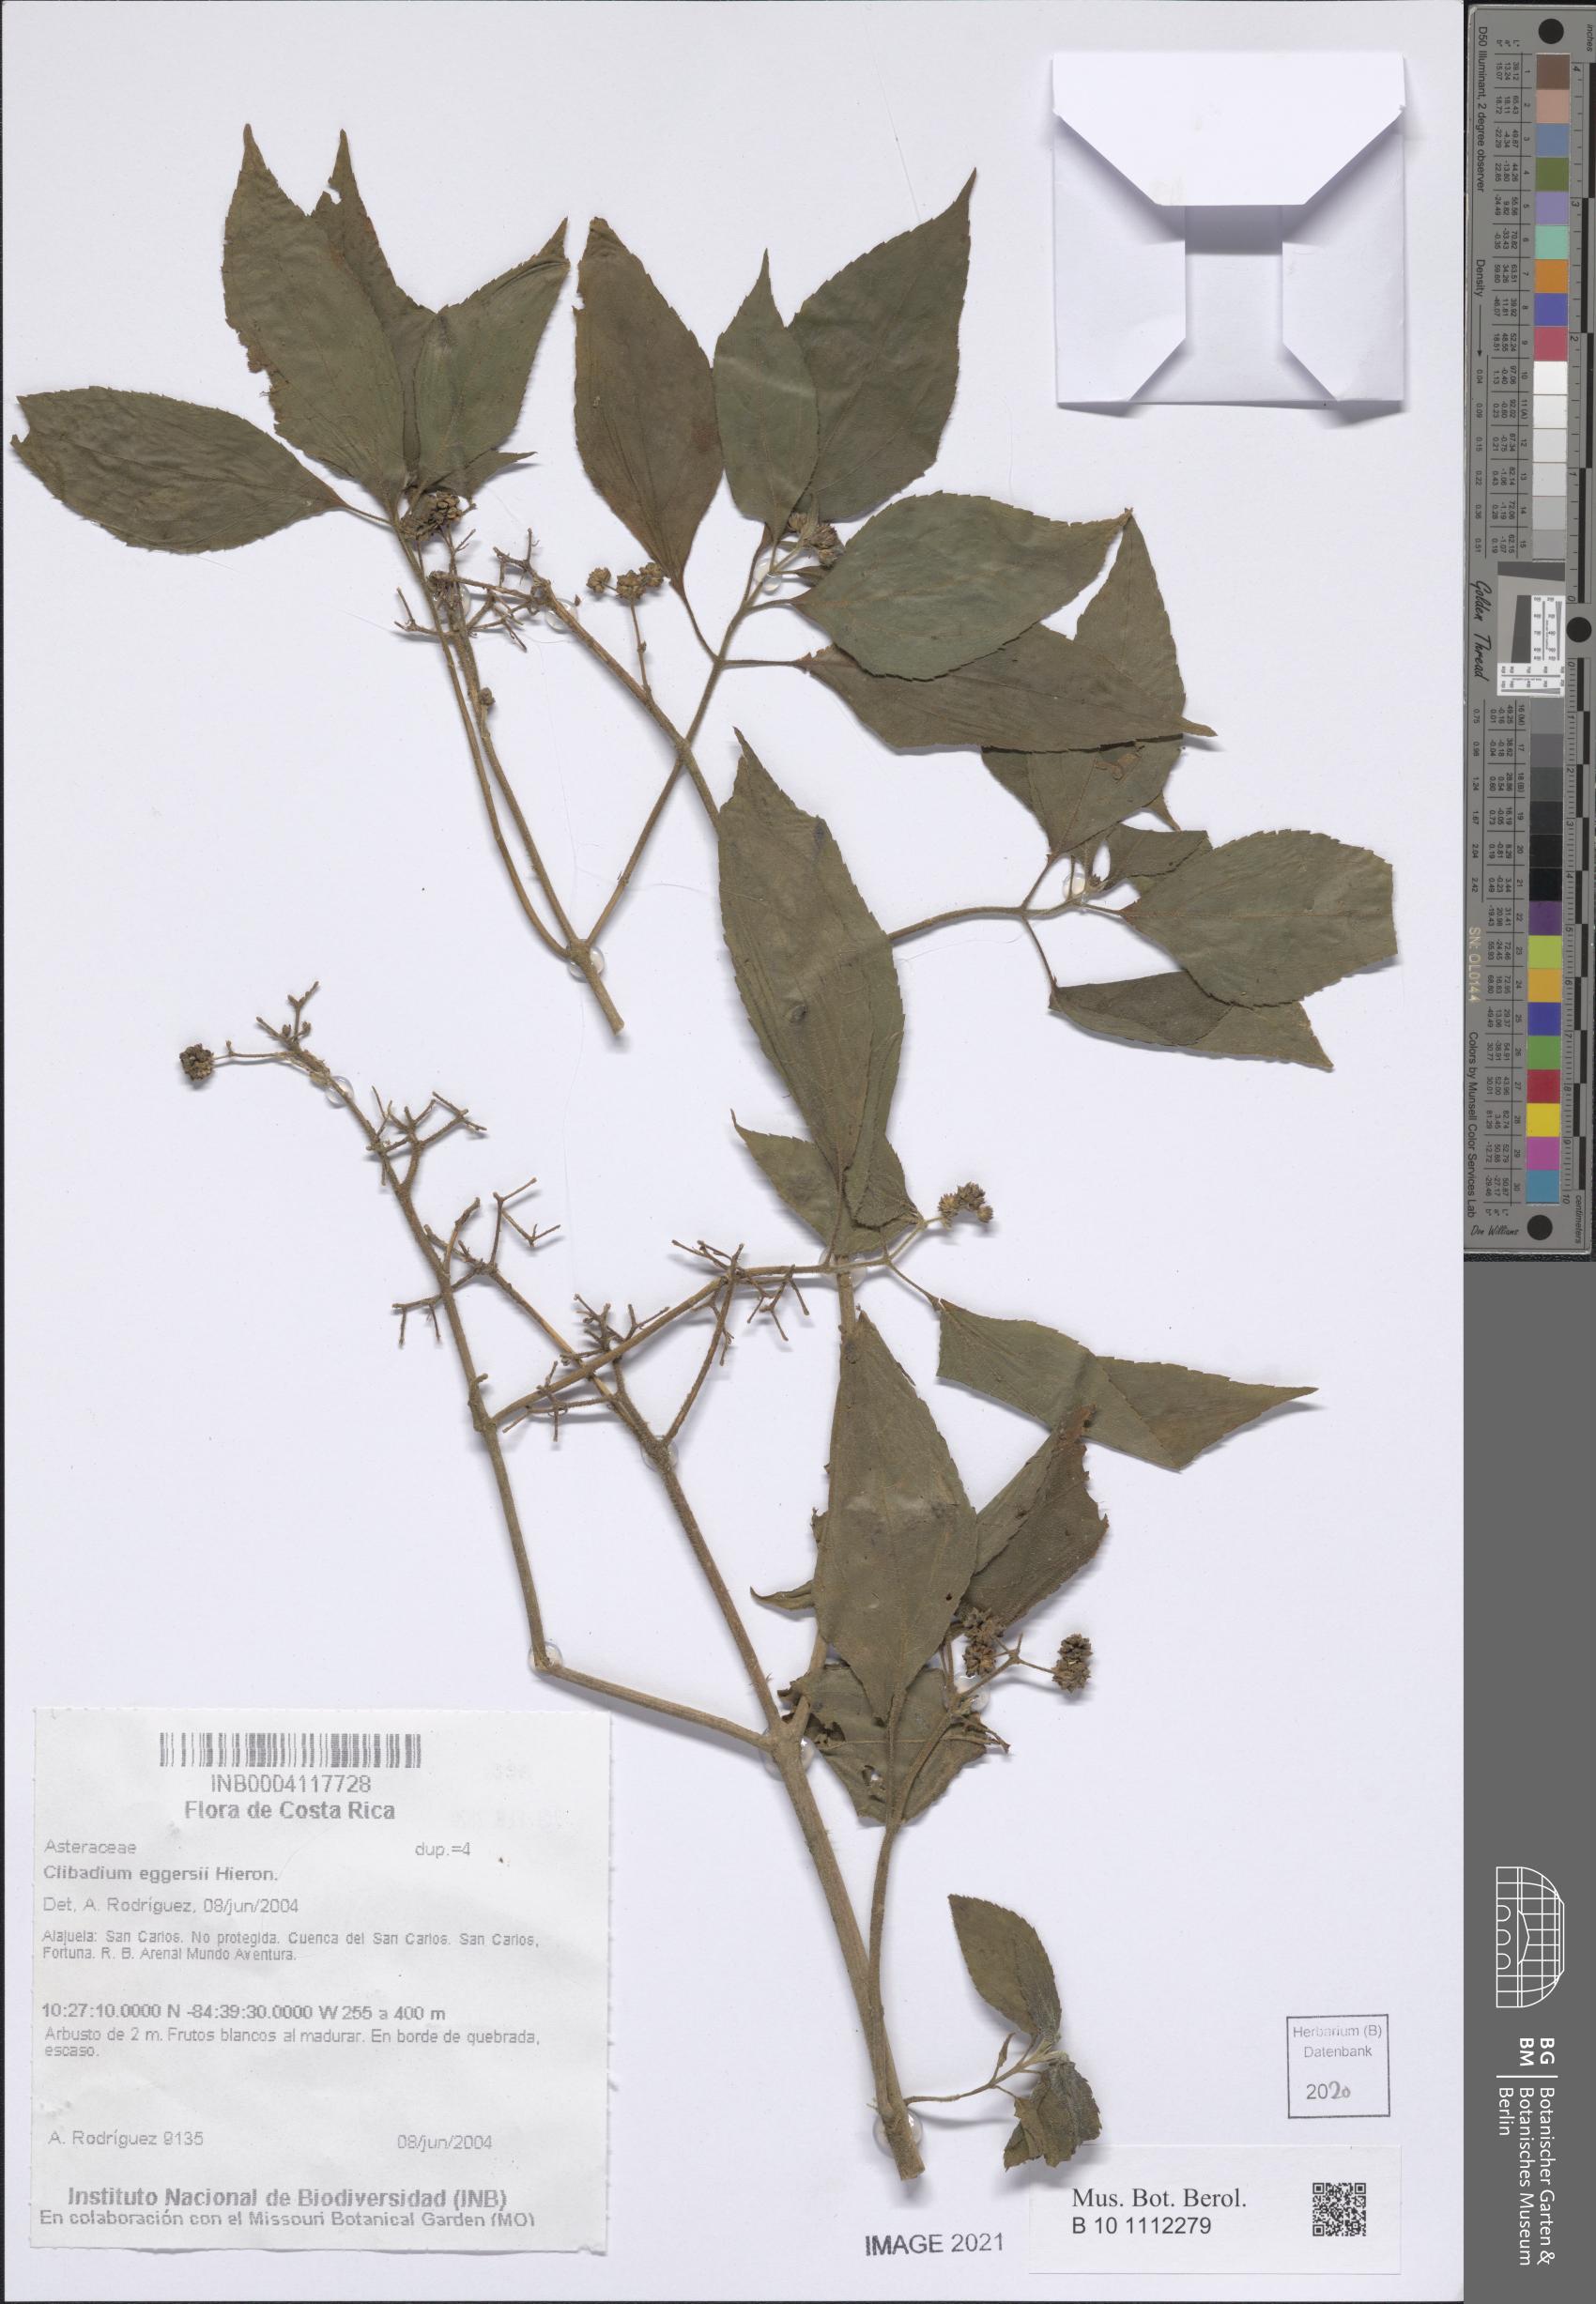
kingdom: Plantae
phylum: Tracheophyta
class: Magnoliopsida
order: Asterales
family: Asteraceae
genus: Clibadium
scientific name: Clibadium eggersii
